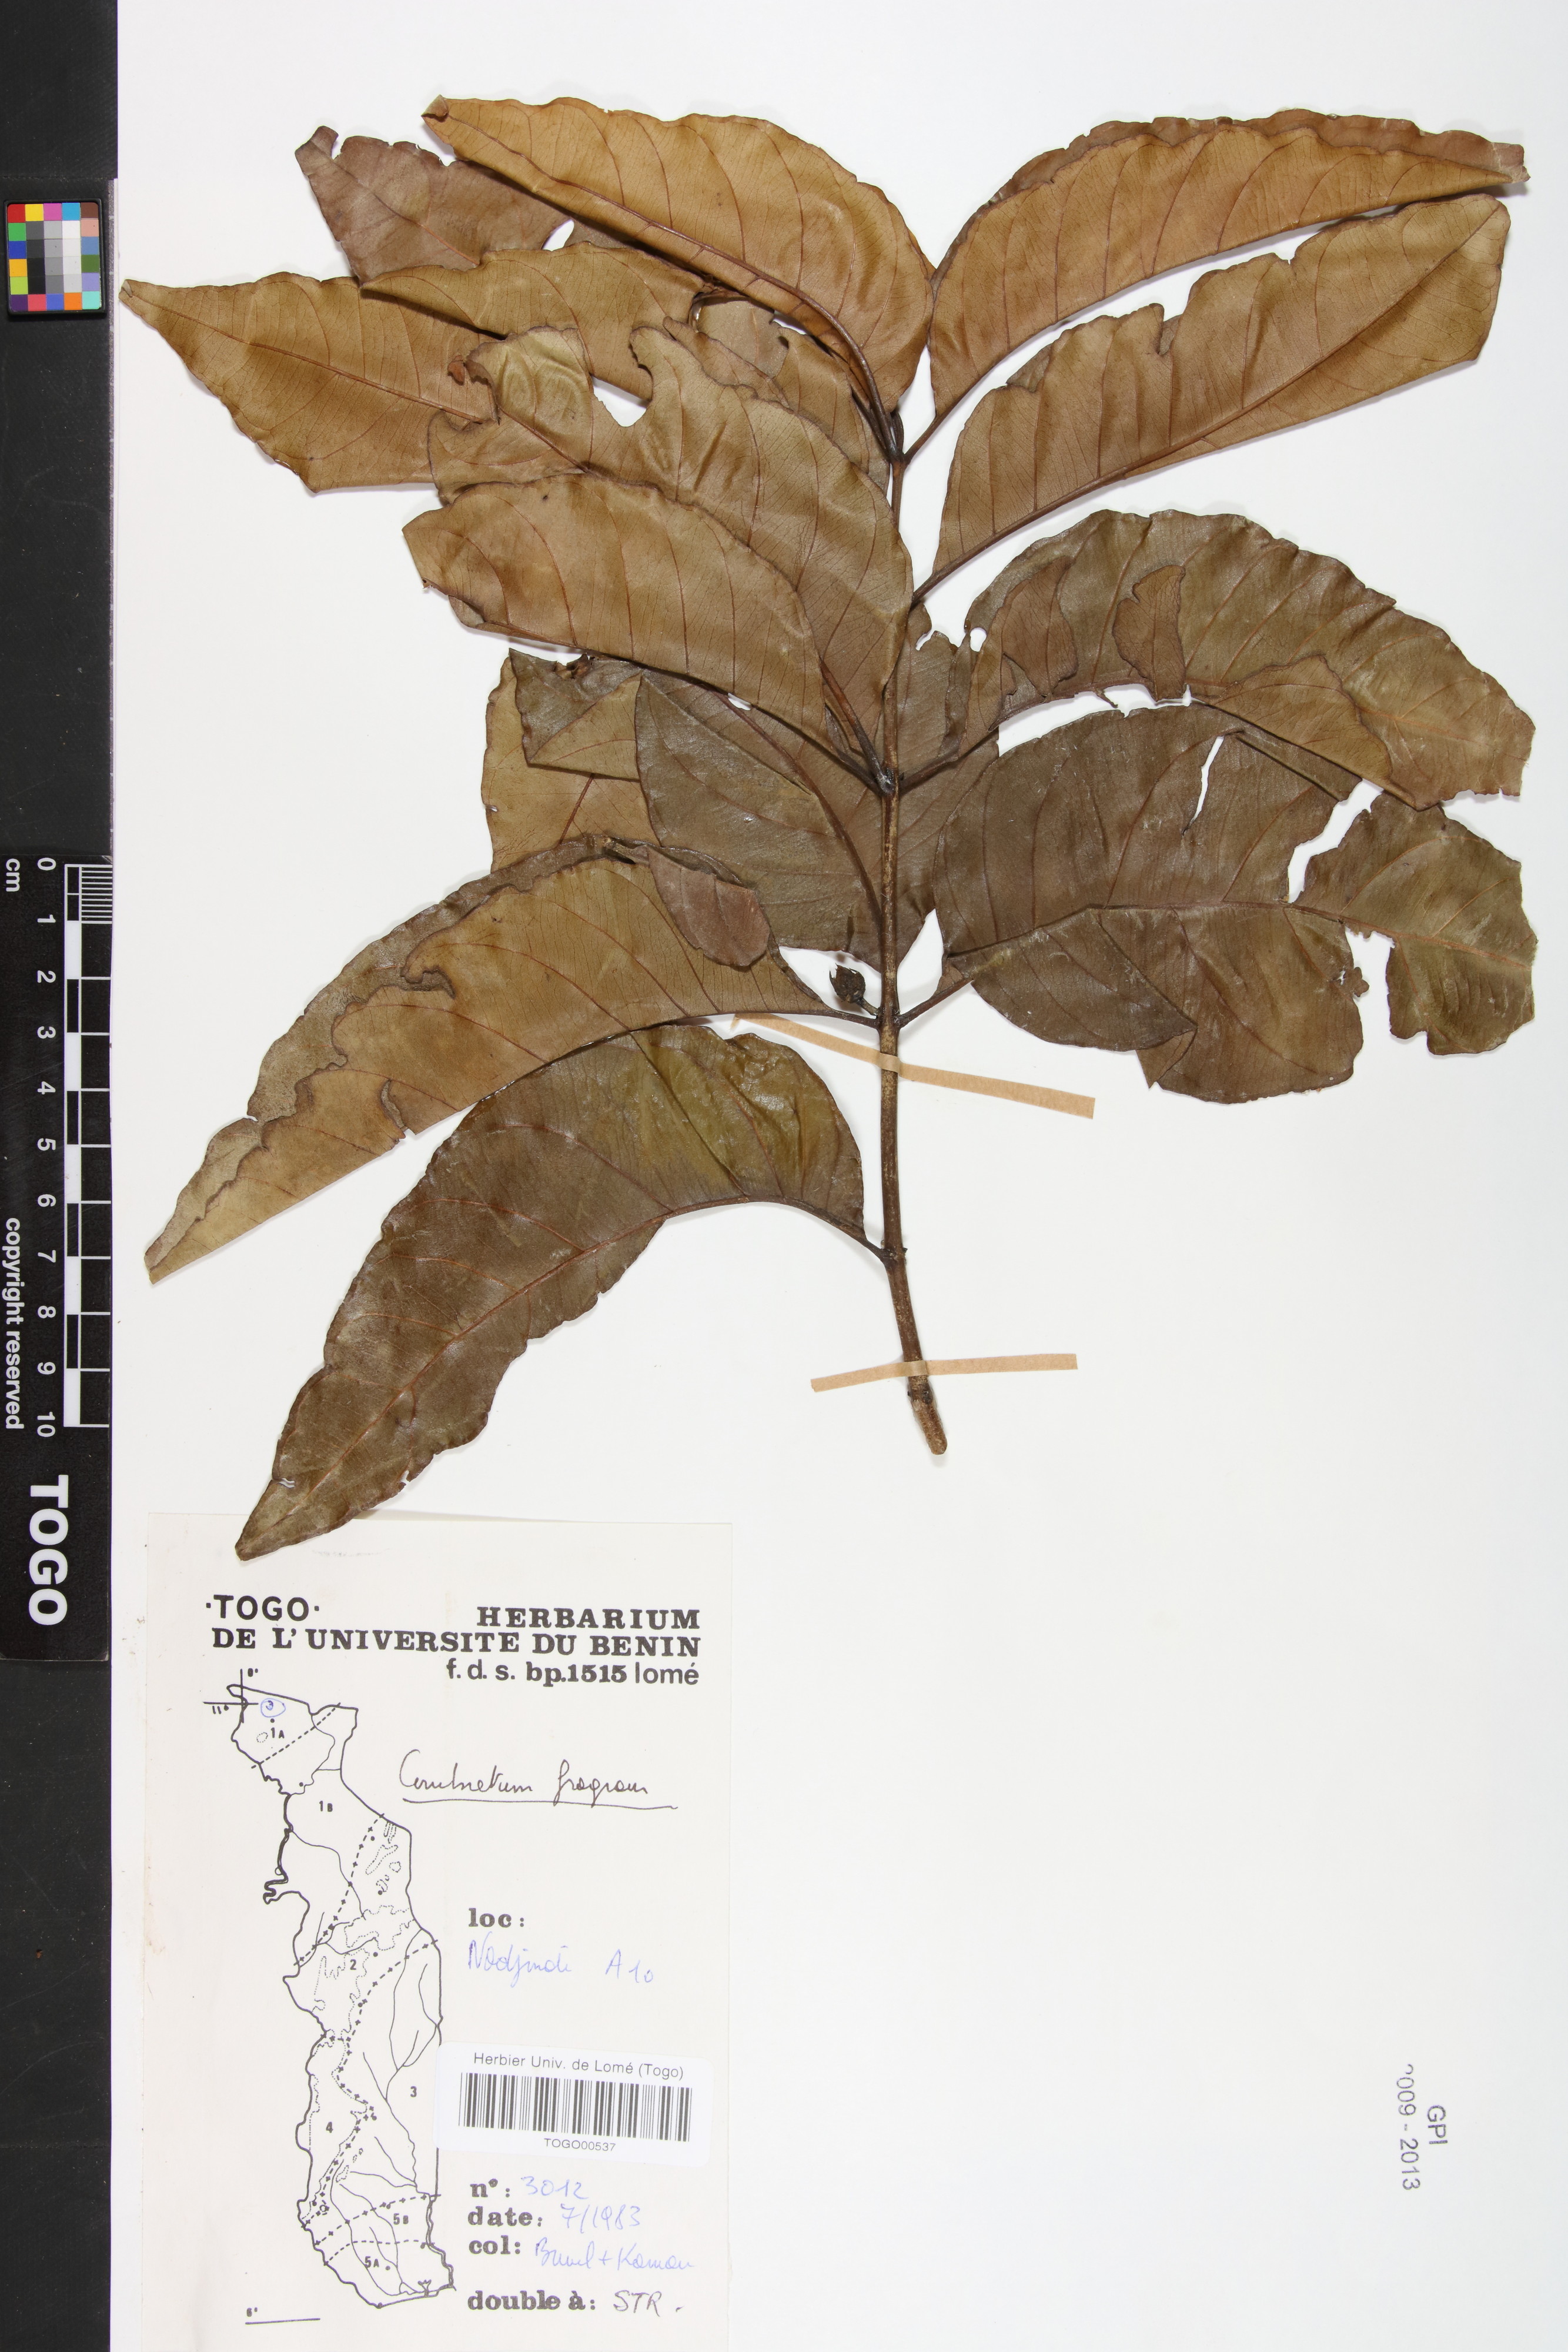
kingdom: Plantae
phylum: Tracheophyta
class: Magnoliopsida
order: Myrtales
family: Combretaceae
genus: Combretum
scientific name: Combretum adenogonium
